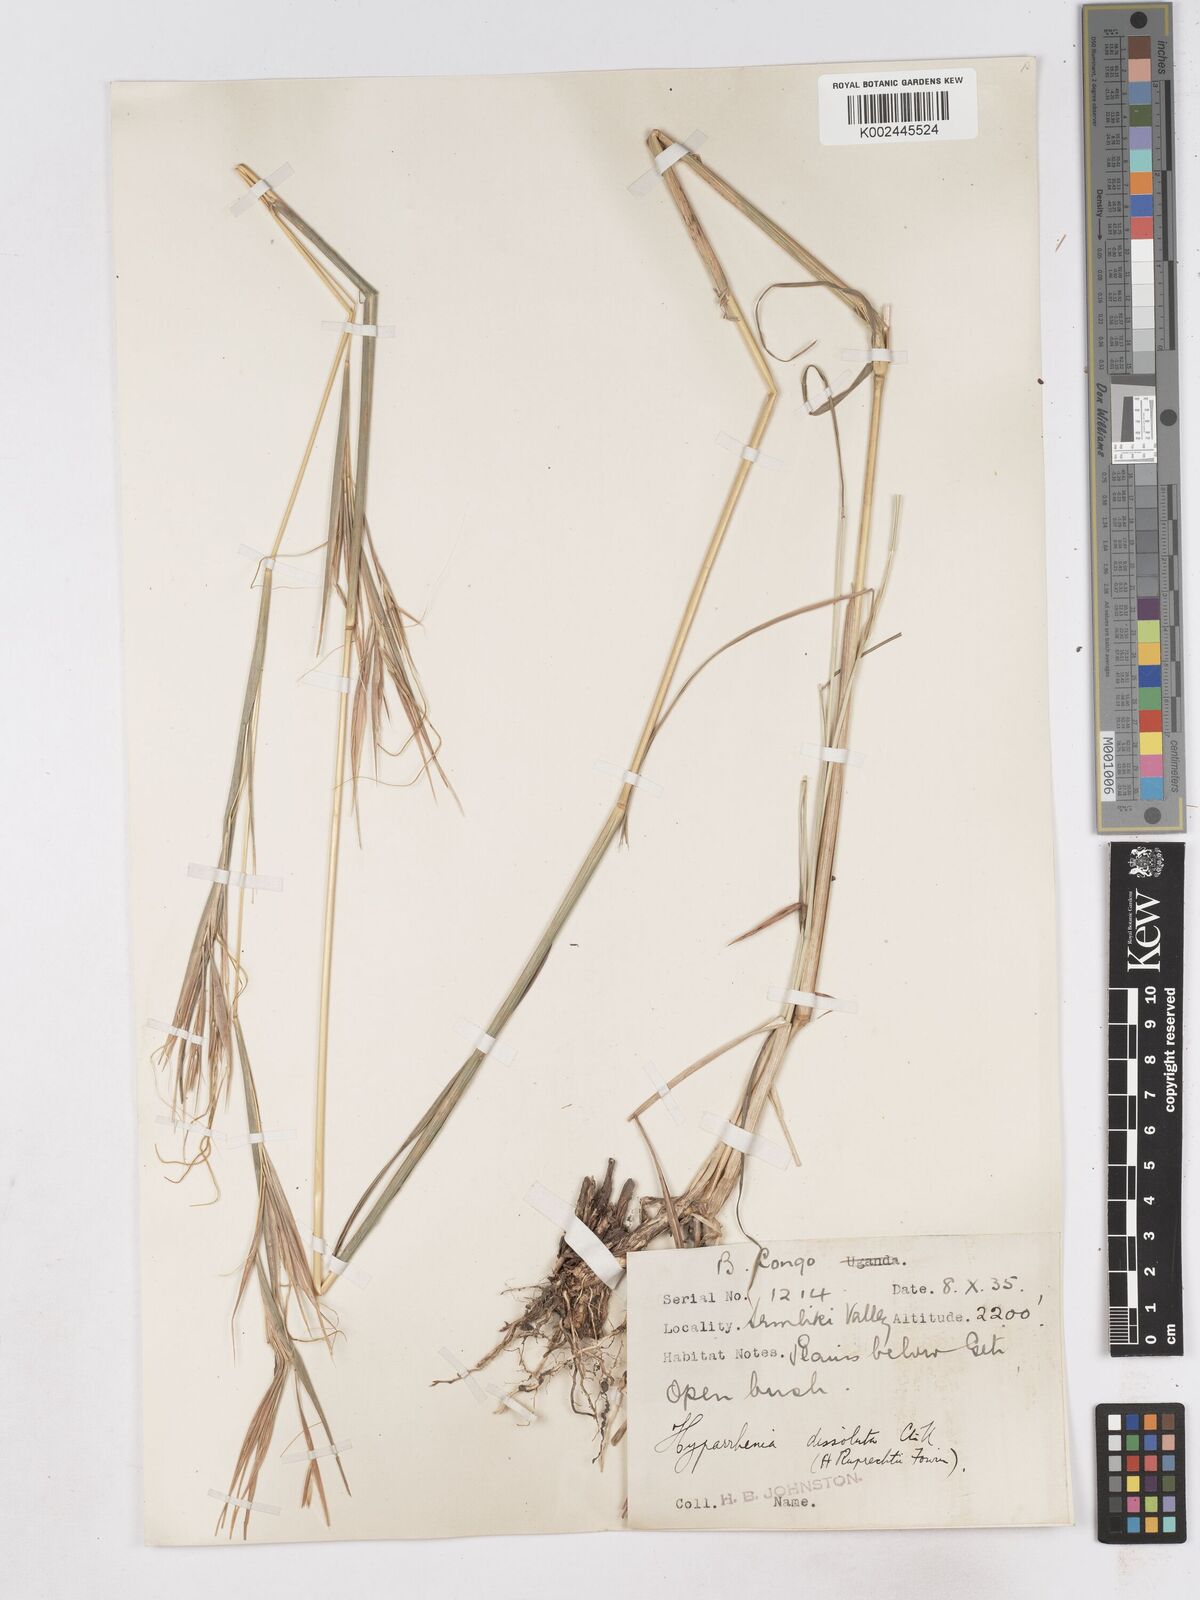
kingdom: Plantae
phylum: Tracheophyta
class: Liliopsida
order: Poales
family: Poaceae
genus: Hyperthelia
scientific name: Hyperthelia dissoluta
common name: Yellow thatching grass
